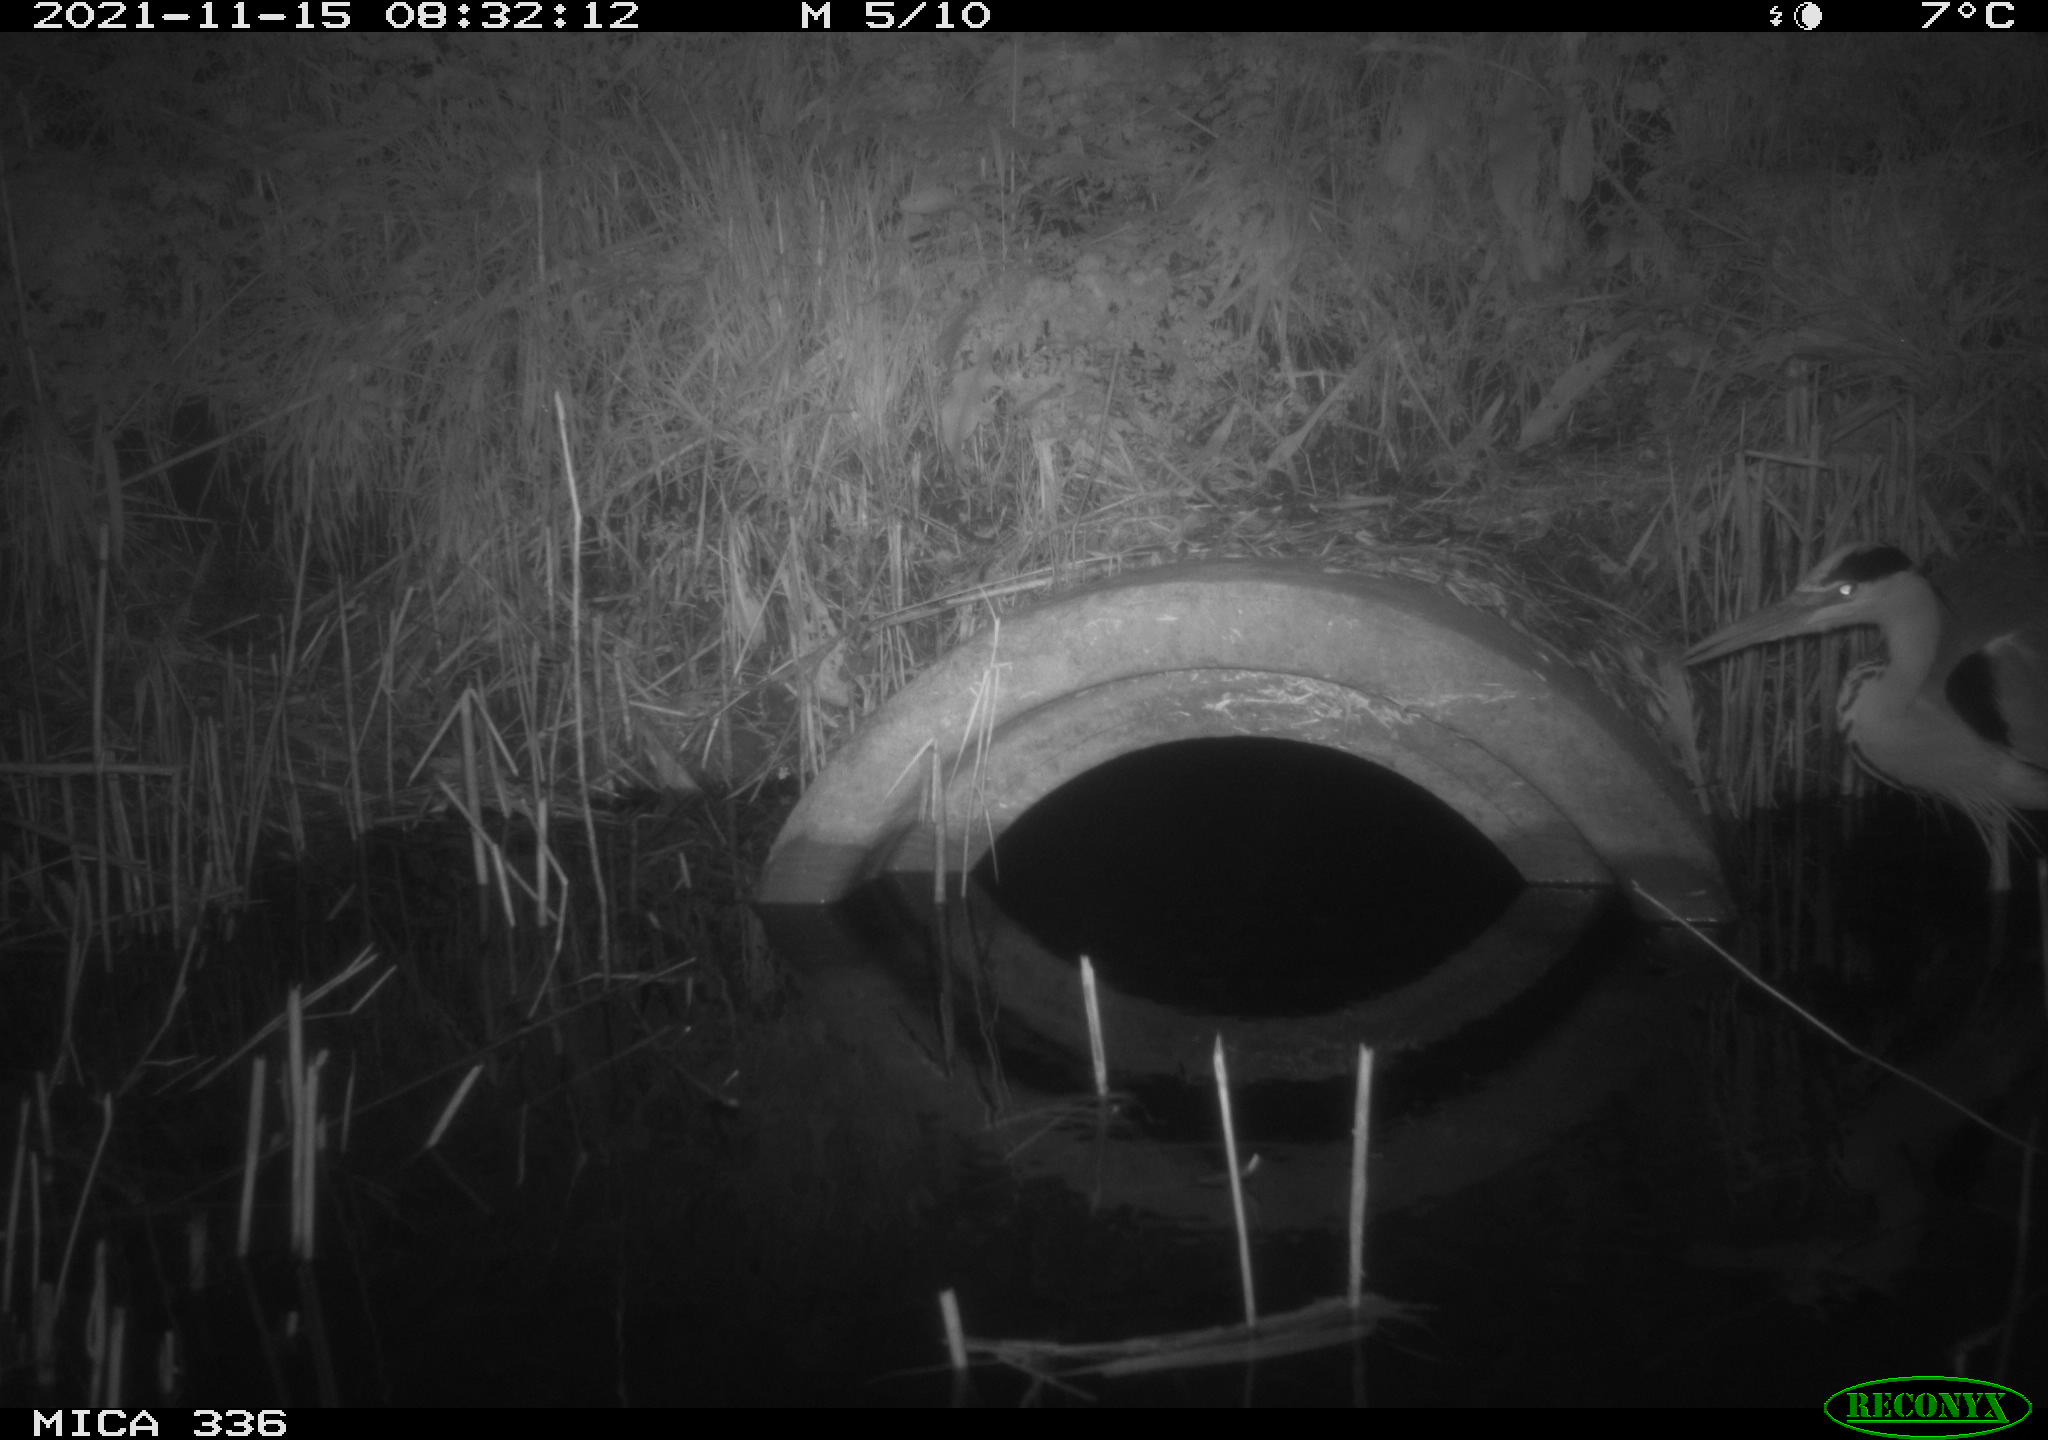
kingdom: Animalia
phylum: Chordata
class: Aves
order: Pelecaniformes
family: Ardeidae
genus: Ardea
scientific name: Ardea cinerea
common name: Grey heron
